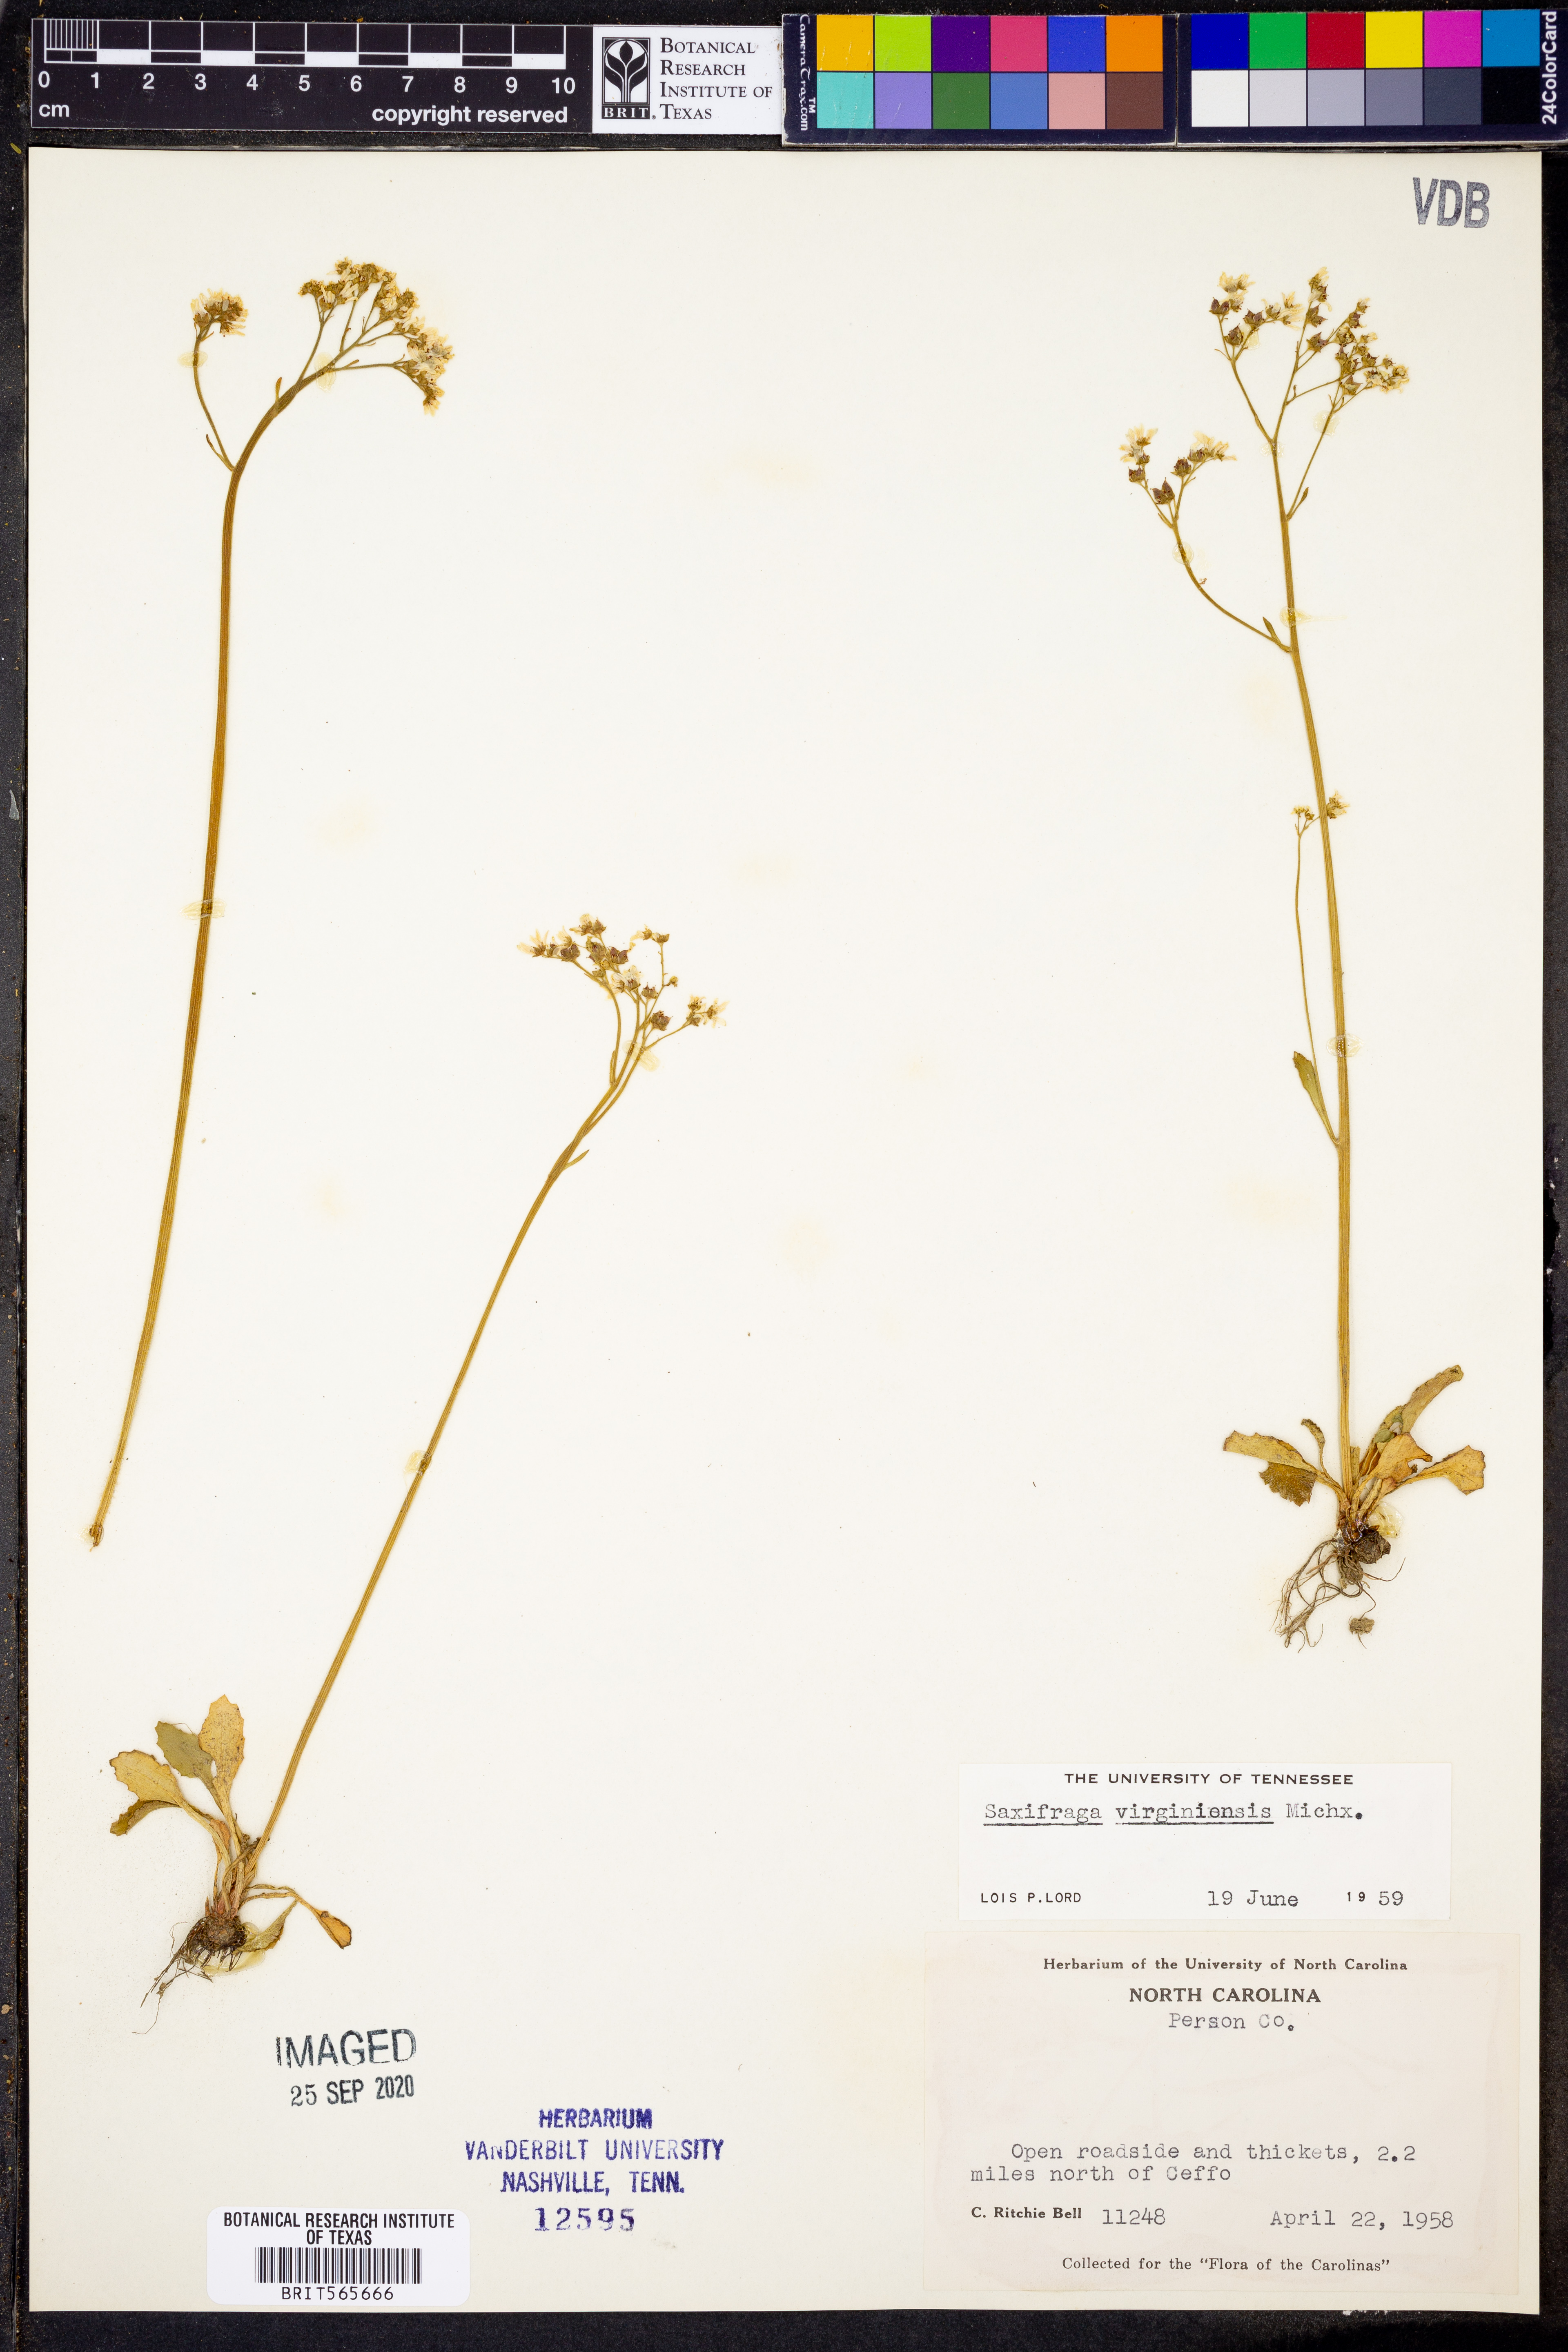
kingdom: Plantae
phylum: Tracheophyta
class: Magnoliopsida
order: Saxifragales
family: Saxifragaceae
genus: Micranthes
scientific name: Micranthes virginiensis
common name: Early saxifrage
